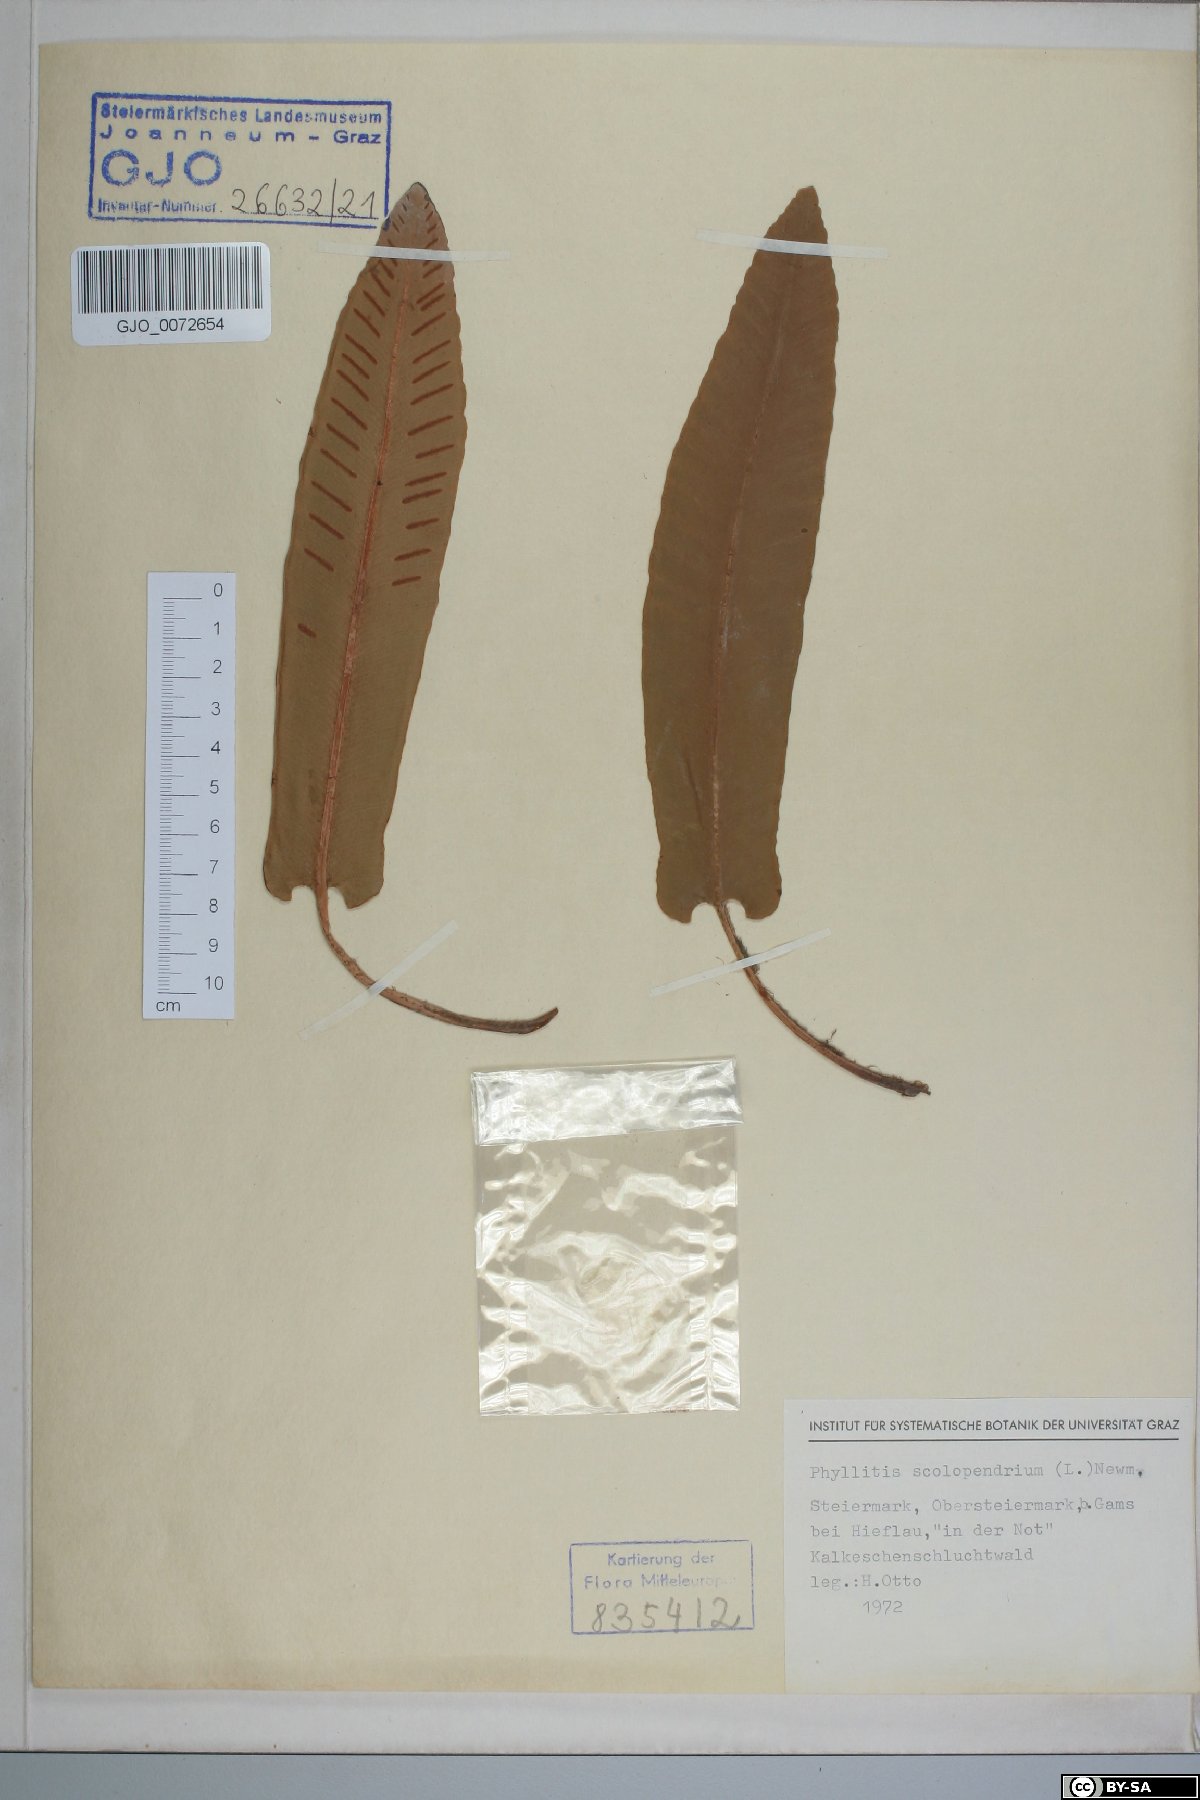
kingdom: Plantae
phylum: Tracheophyta
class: Polypodiopsida
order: Polypodiales
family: Aspleniaceae
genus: Asplenium
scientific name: Asplenium scolopendrium
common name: Hart's-tongue fern
